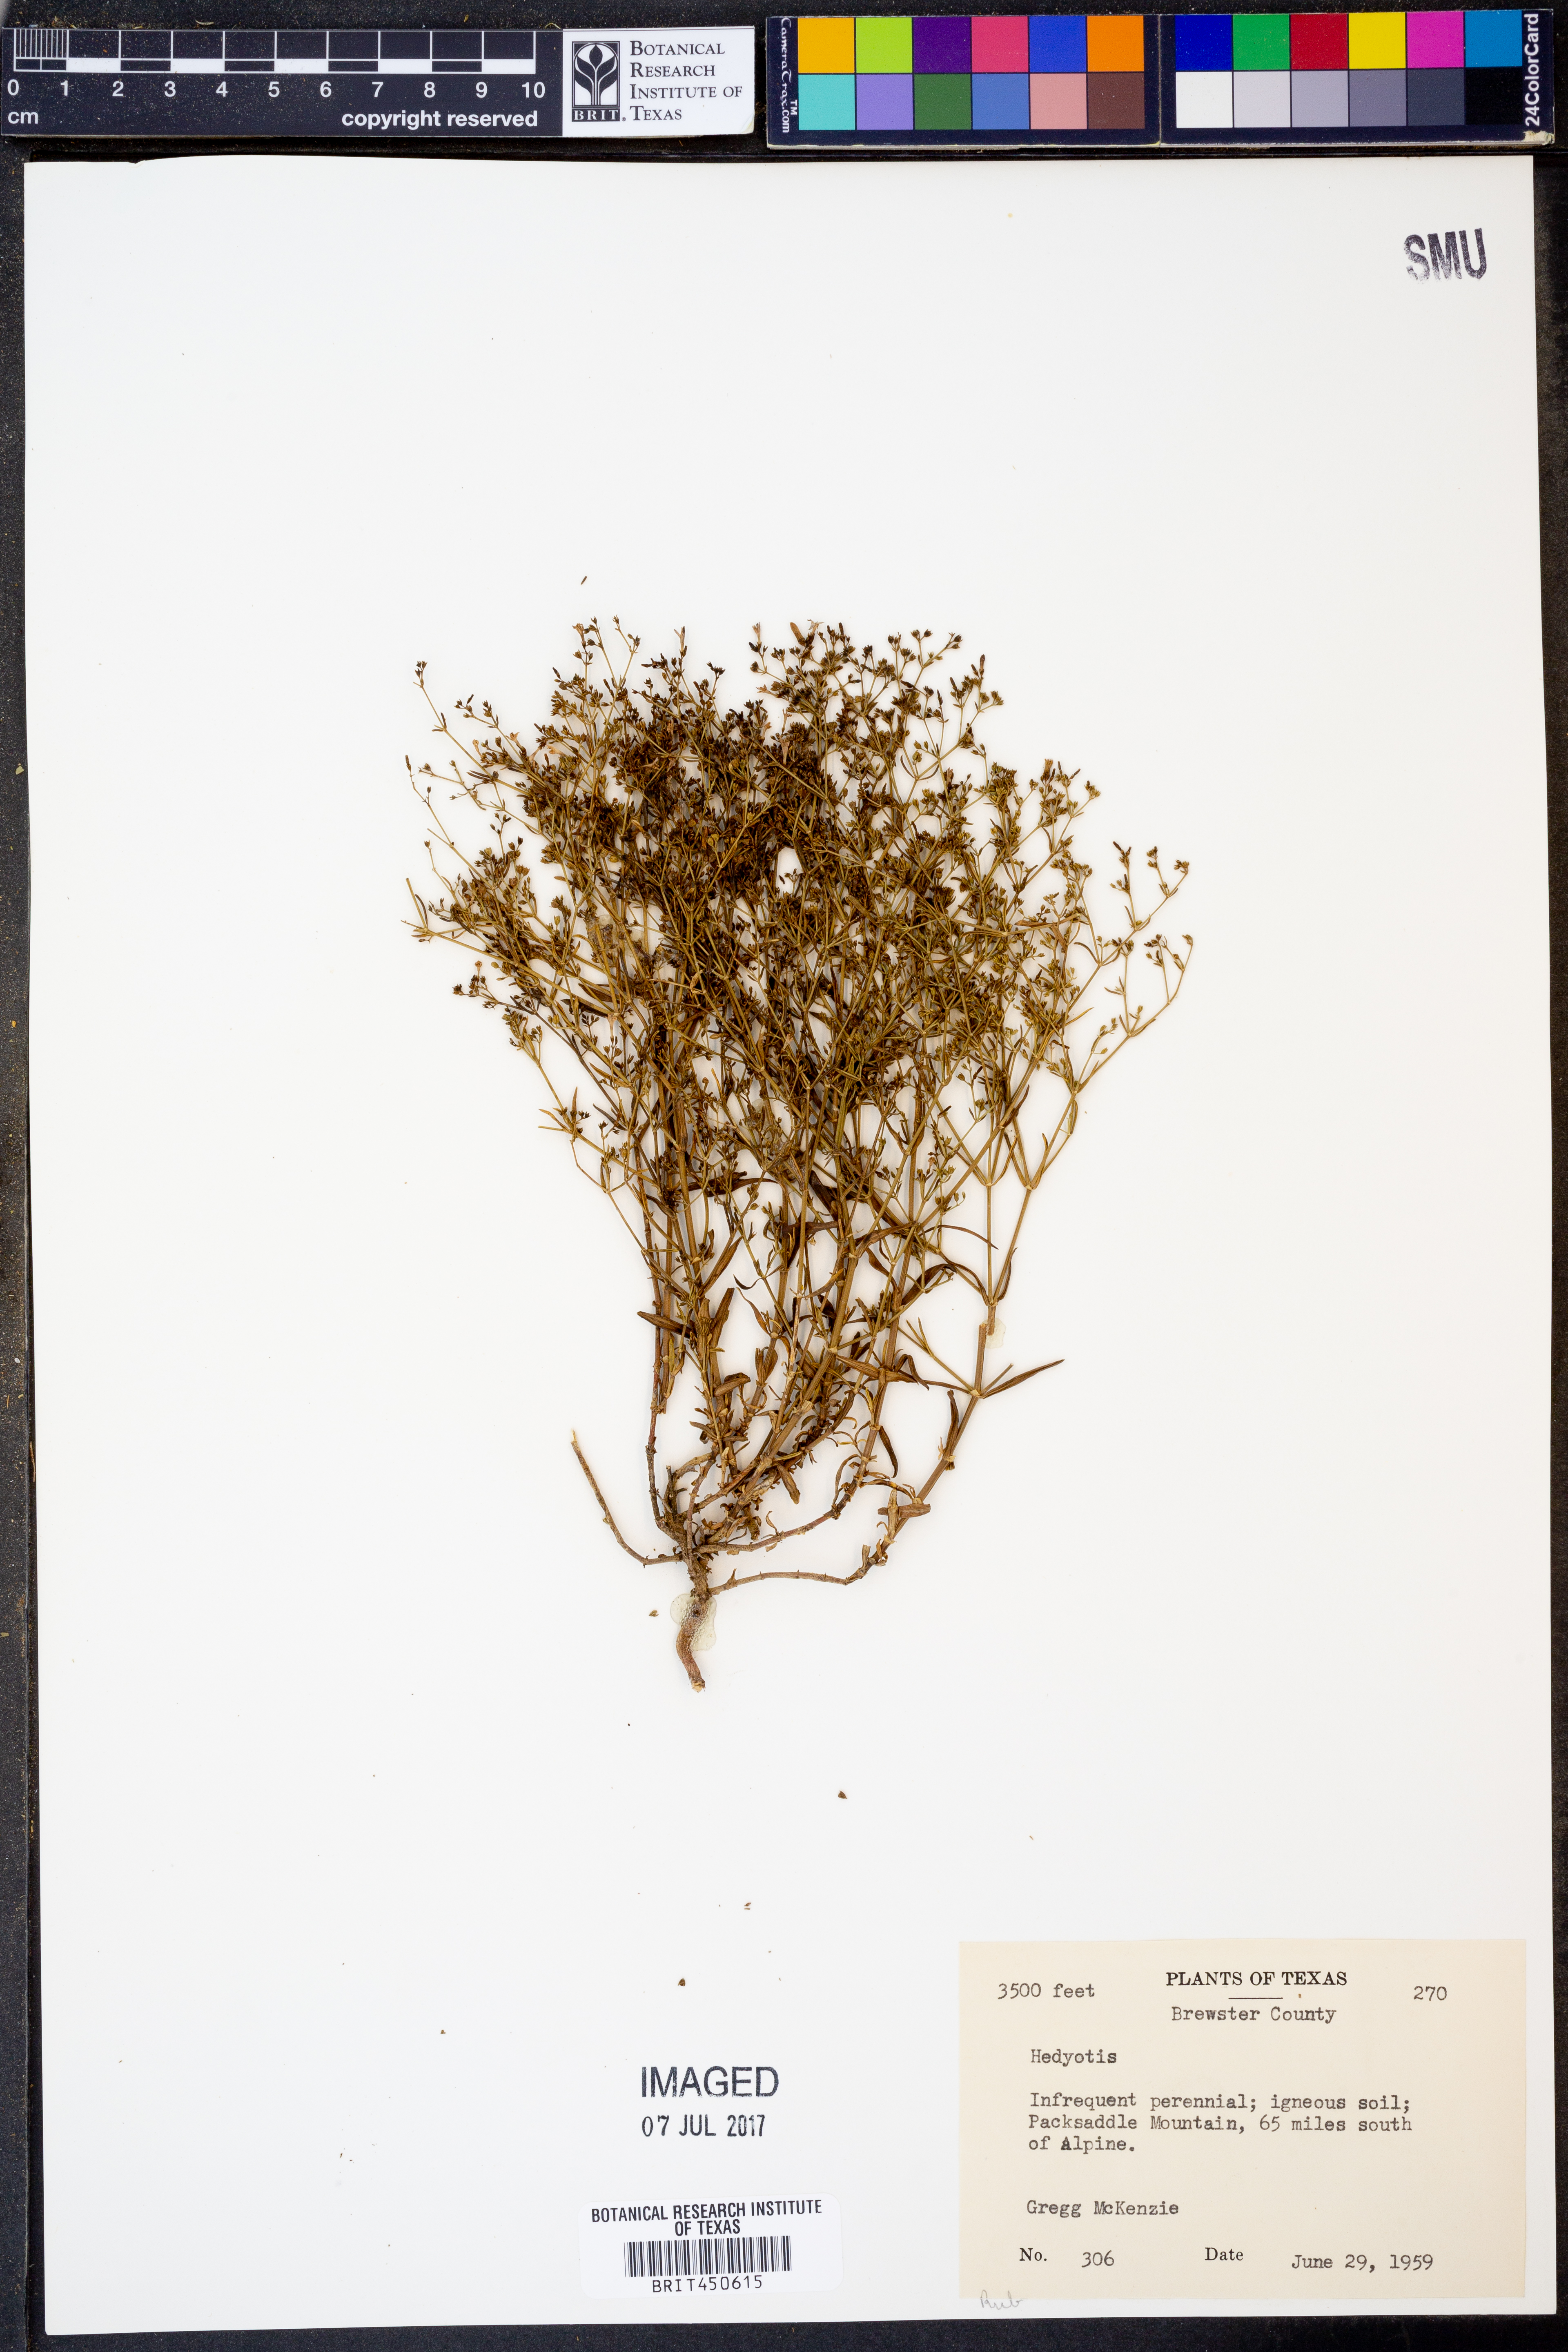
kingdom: Plantae
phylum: Tracheophyta
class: Magnoliopsida
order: Gentianales
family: Rubiaceae
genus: Hedyotis
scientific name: Hedyotis
